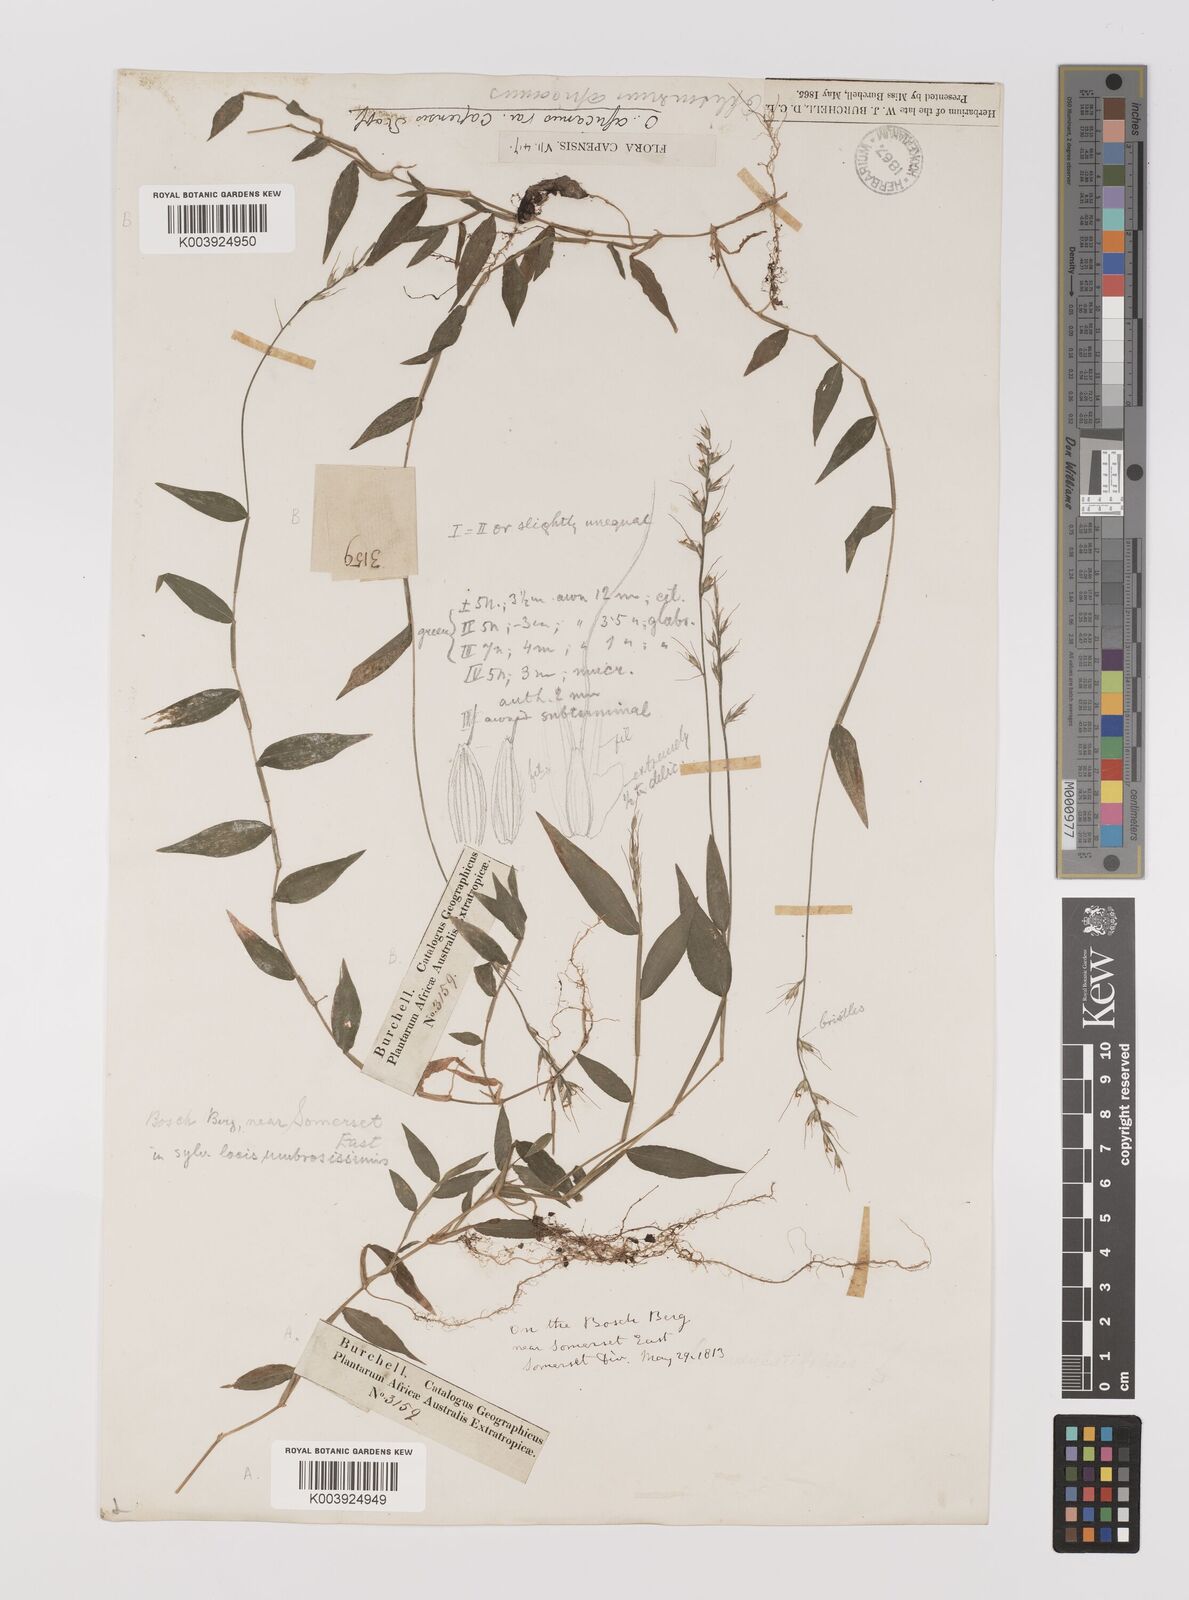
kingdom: Plantae
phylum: Tracheophyta
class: Liliopsida
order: Poales
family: Poaceae
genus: Oplismenus
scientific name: Oplismenus undulatifolius
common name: Wavyleaf basketgrass
